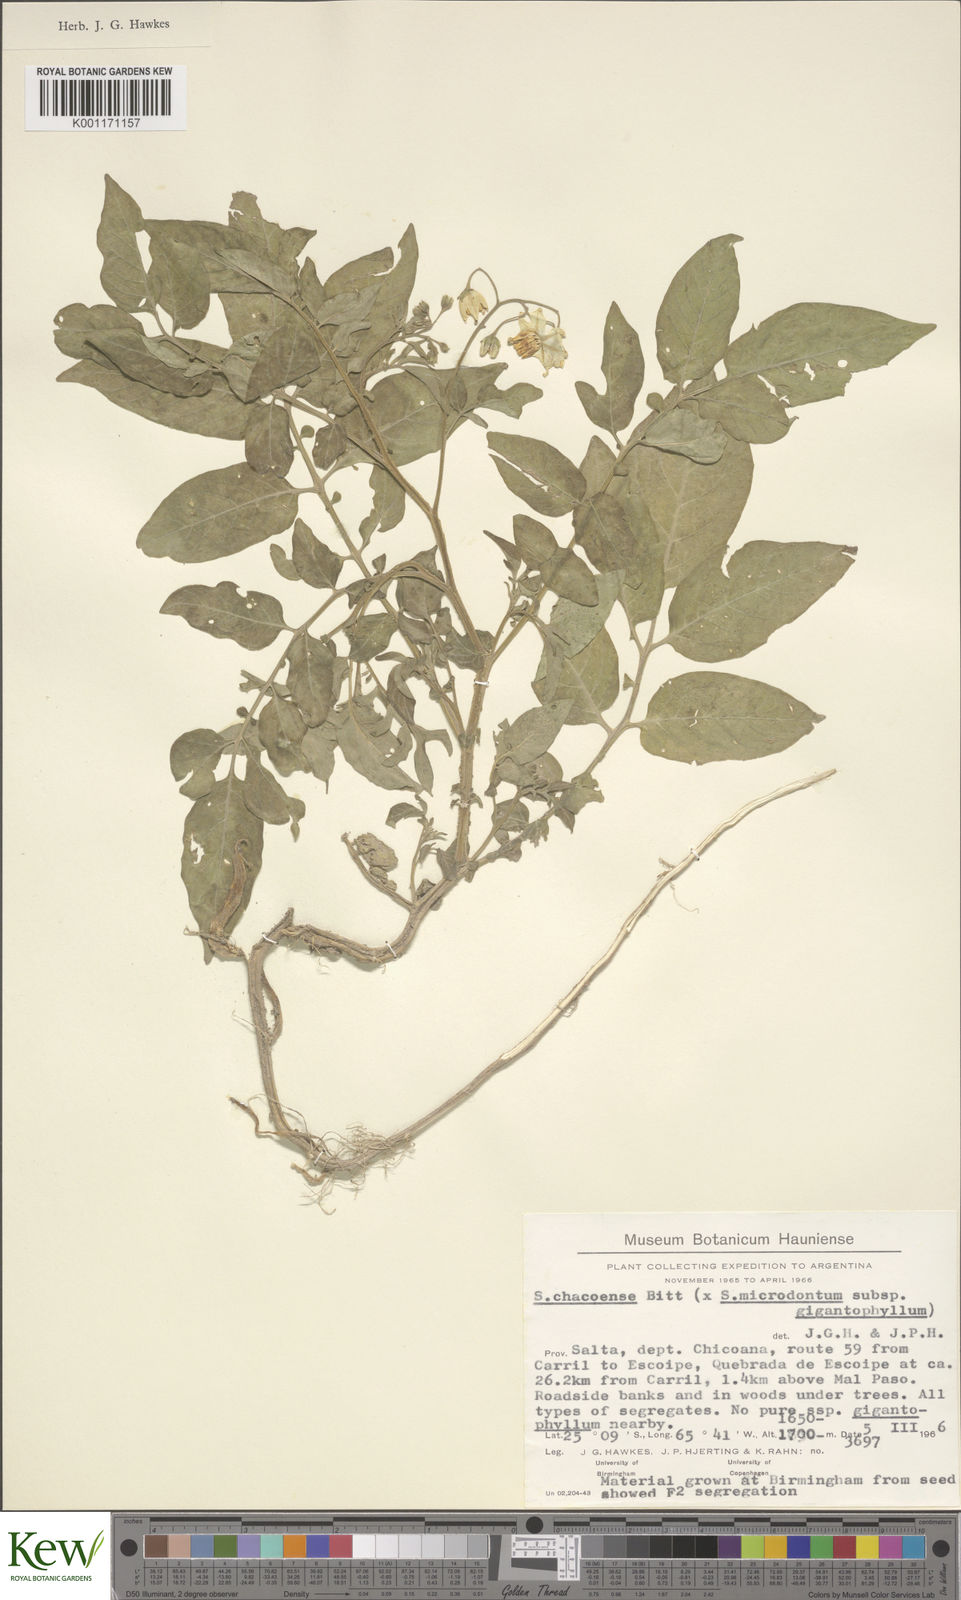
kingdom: Plantae
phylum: Tracheophyta
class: Magnoliopsida
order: Solanales
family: Solanaceae
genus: Solanum
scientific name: Solanum microdontum
